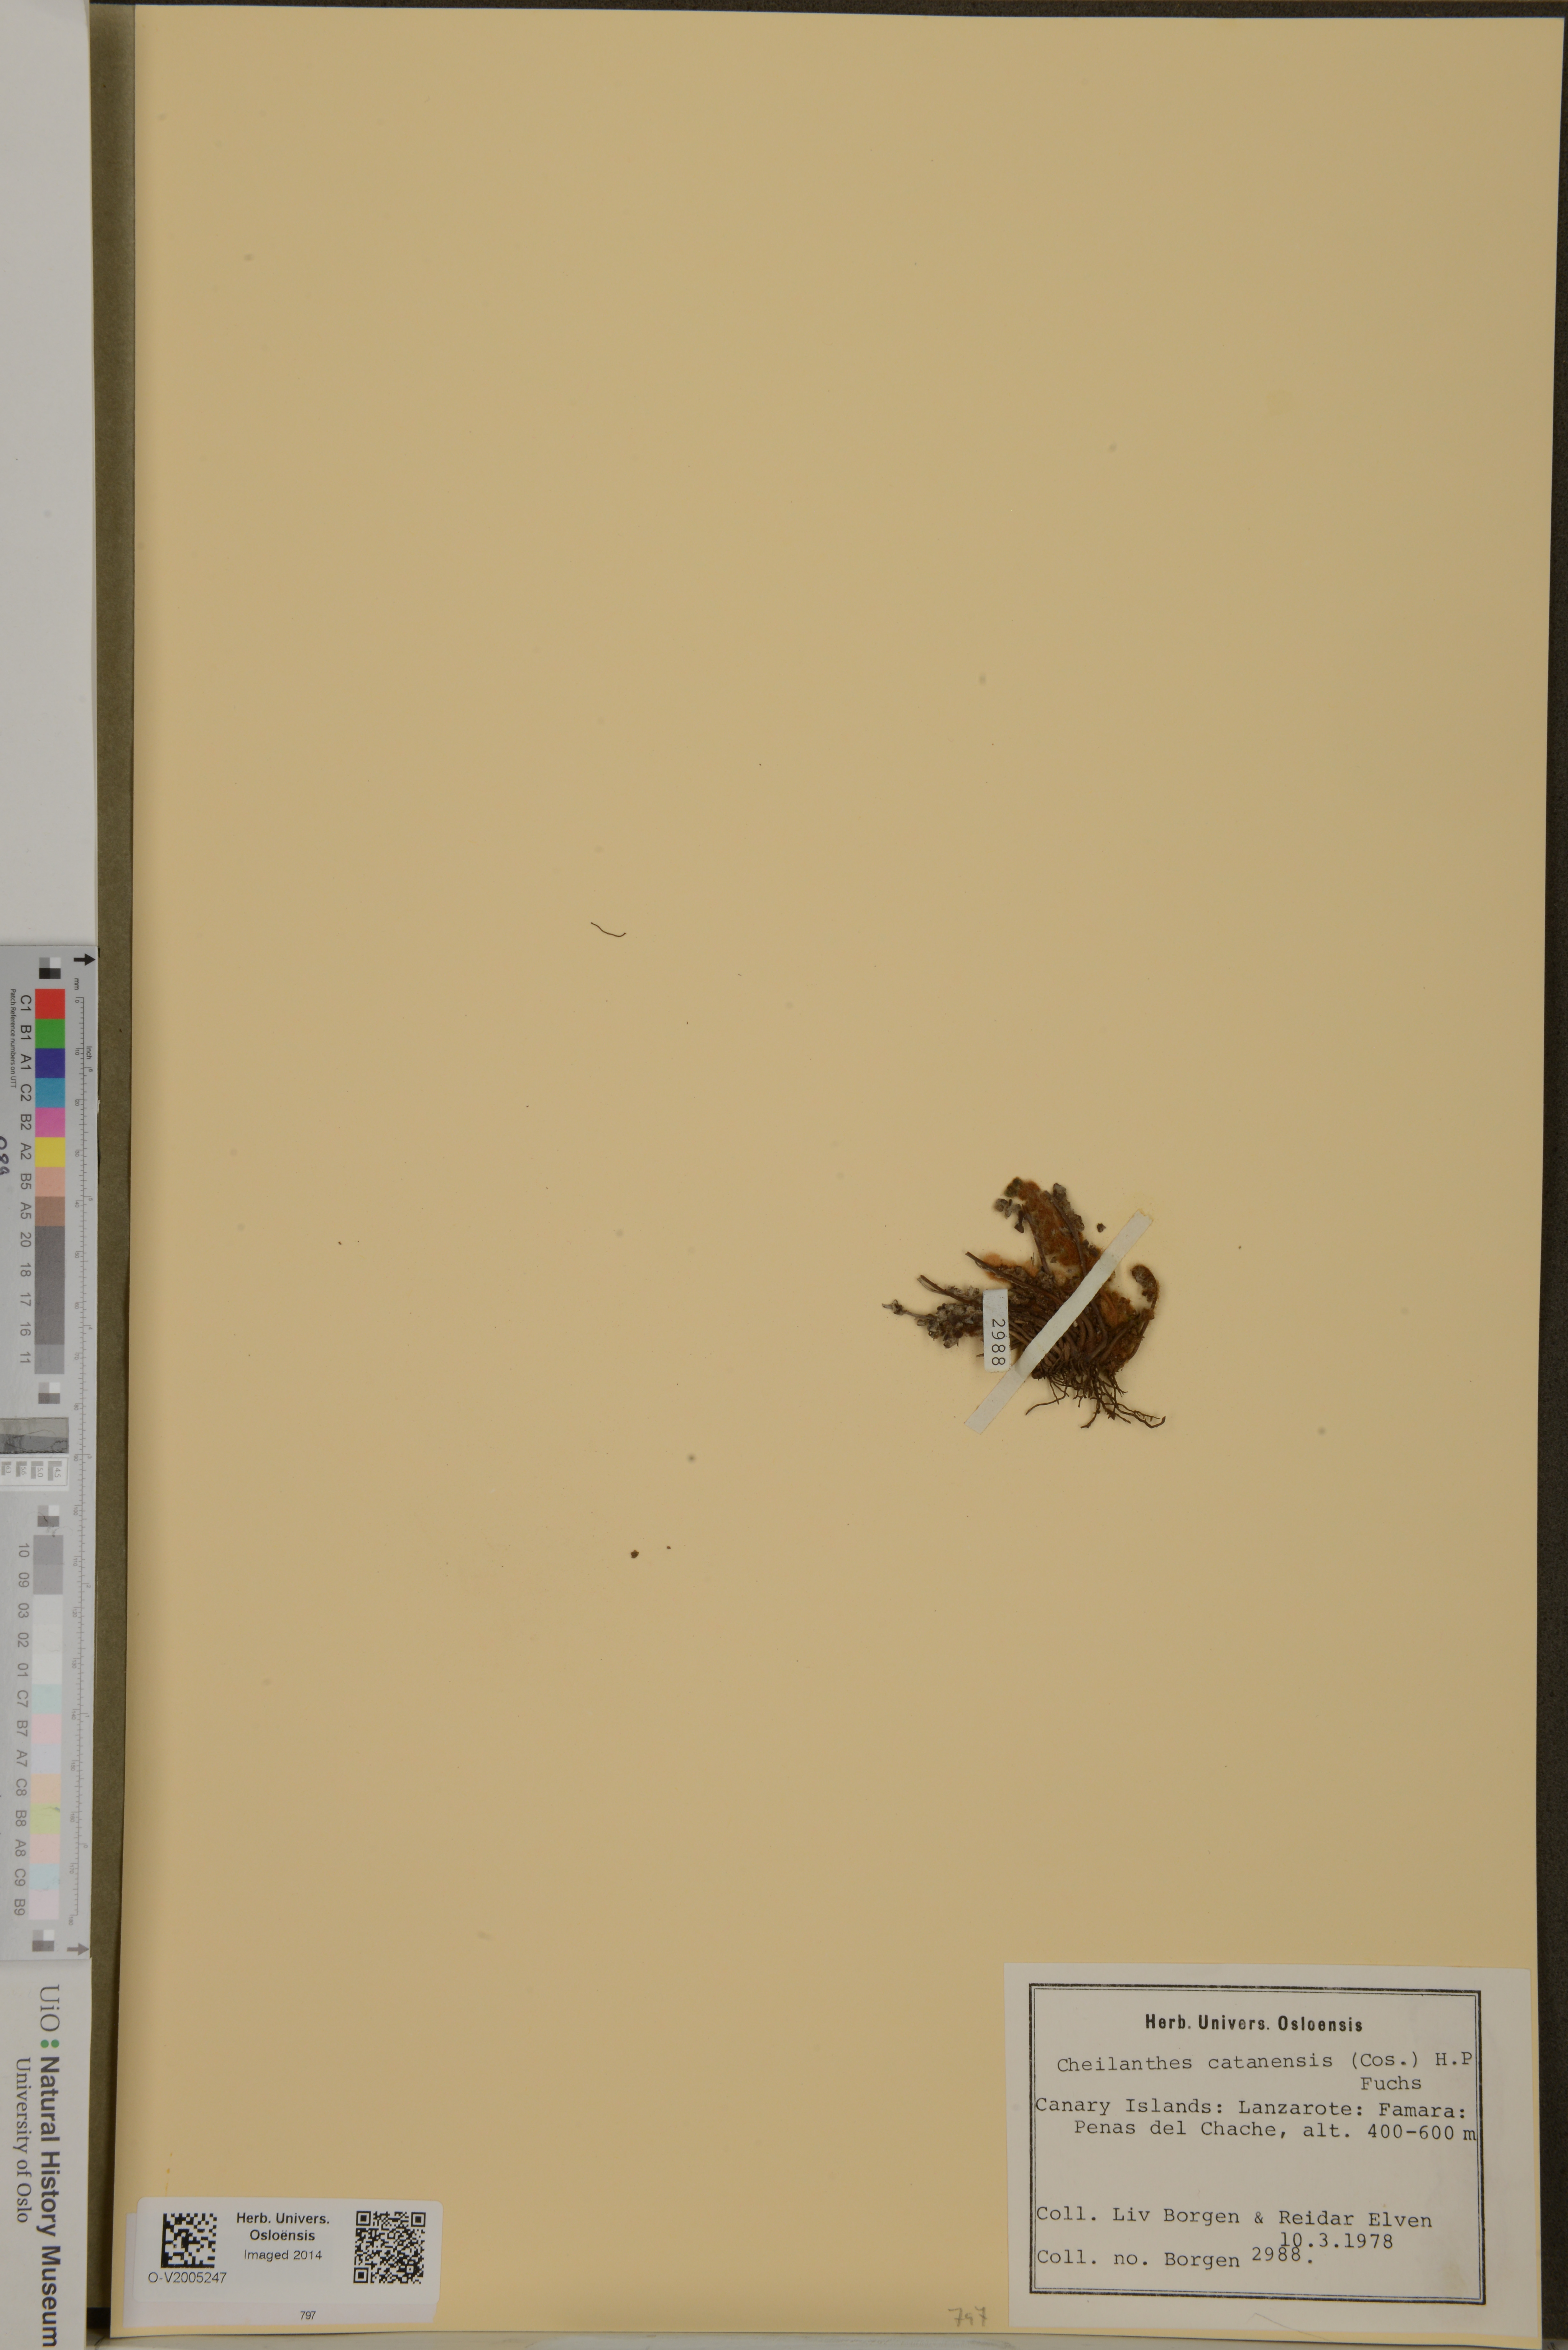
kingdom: Plantae
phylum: Tracheophyta
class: Polypodiopsida
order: Polypodiales
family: Pteridaceae
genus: Cosentinia
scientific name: Cosentinia vellea
